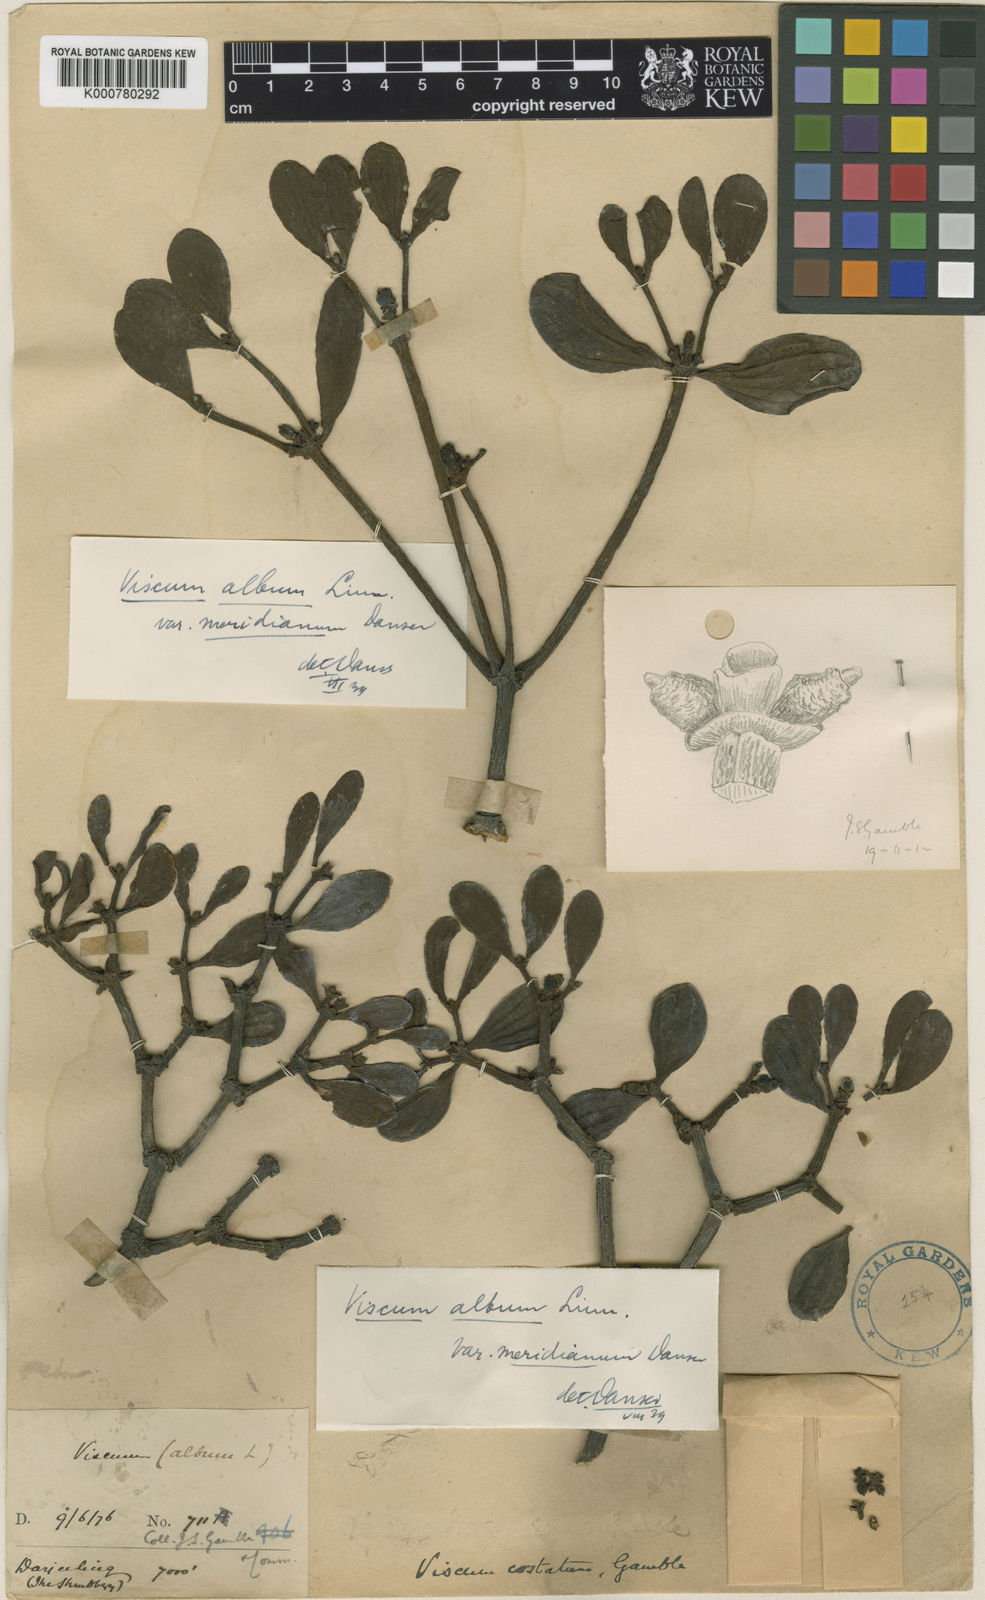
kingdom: Plantae
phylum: Tracheophyta
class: Magnoliopsida
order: Santalales
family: Viscaceae
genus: Viscum
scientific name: Viscum album
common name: Mistletoe
